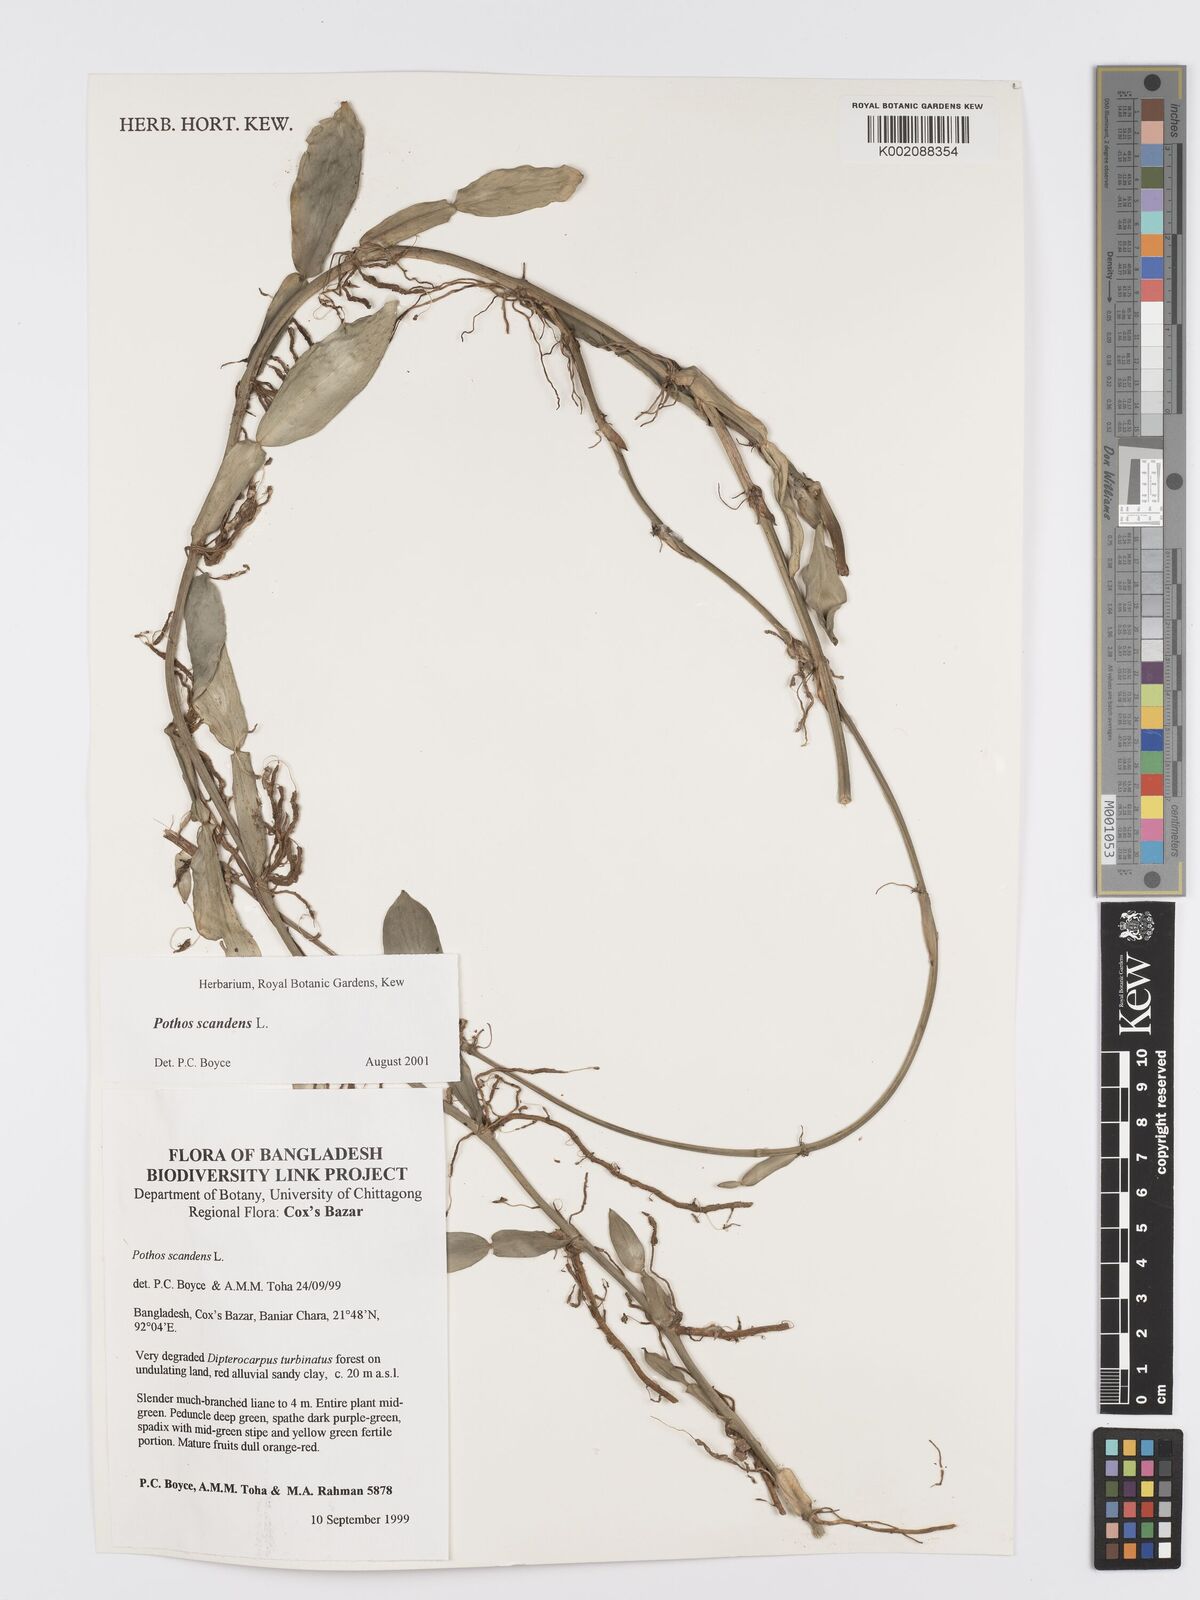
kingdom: Plantae
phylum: Tracheophyta
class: Liliopsida
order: Alismatales
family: Araceae
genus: Pothos
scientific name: Pothos scandens
